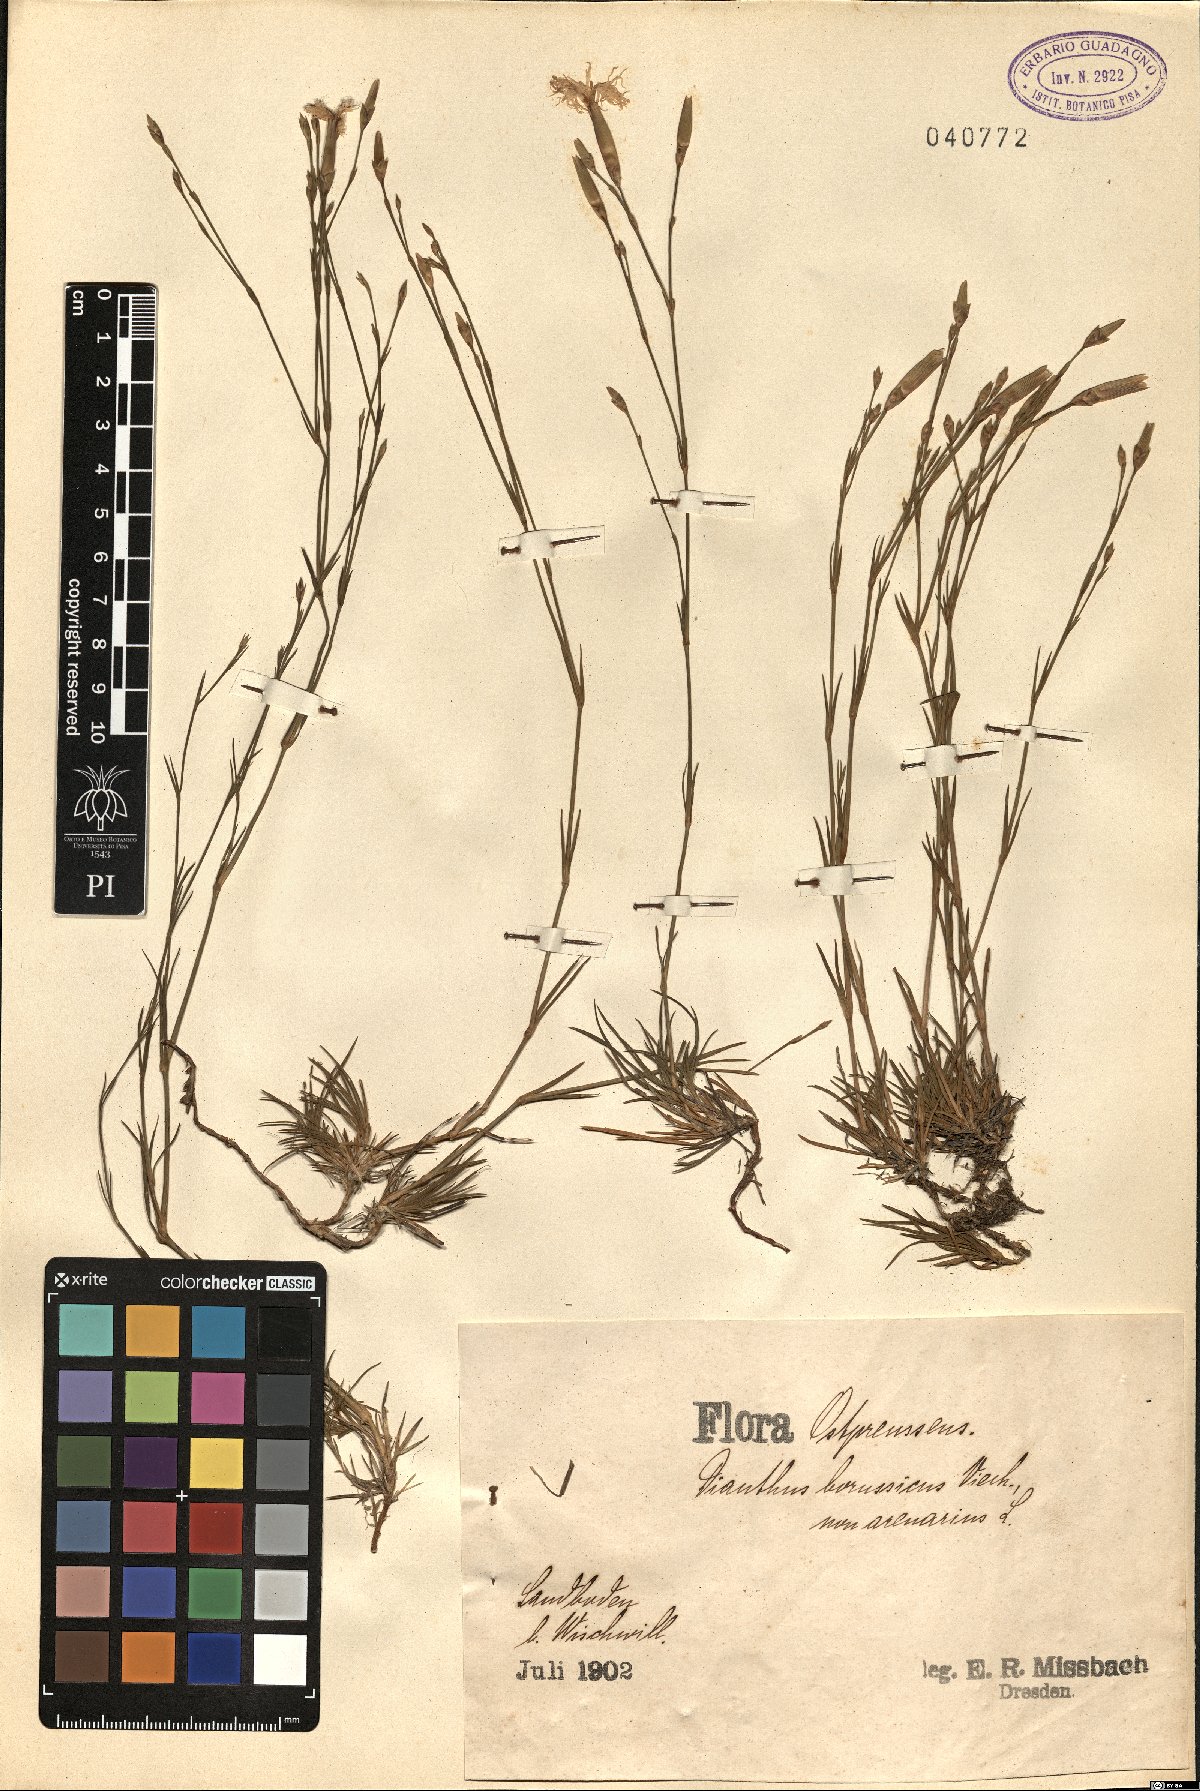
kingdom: Plantae
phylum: Tracheophyta
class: Magnoliopsida
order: Caryophyllales
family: Caryophyllaceae
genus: Dianthus
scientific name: Dianthus arenarius
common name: Stone pink
